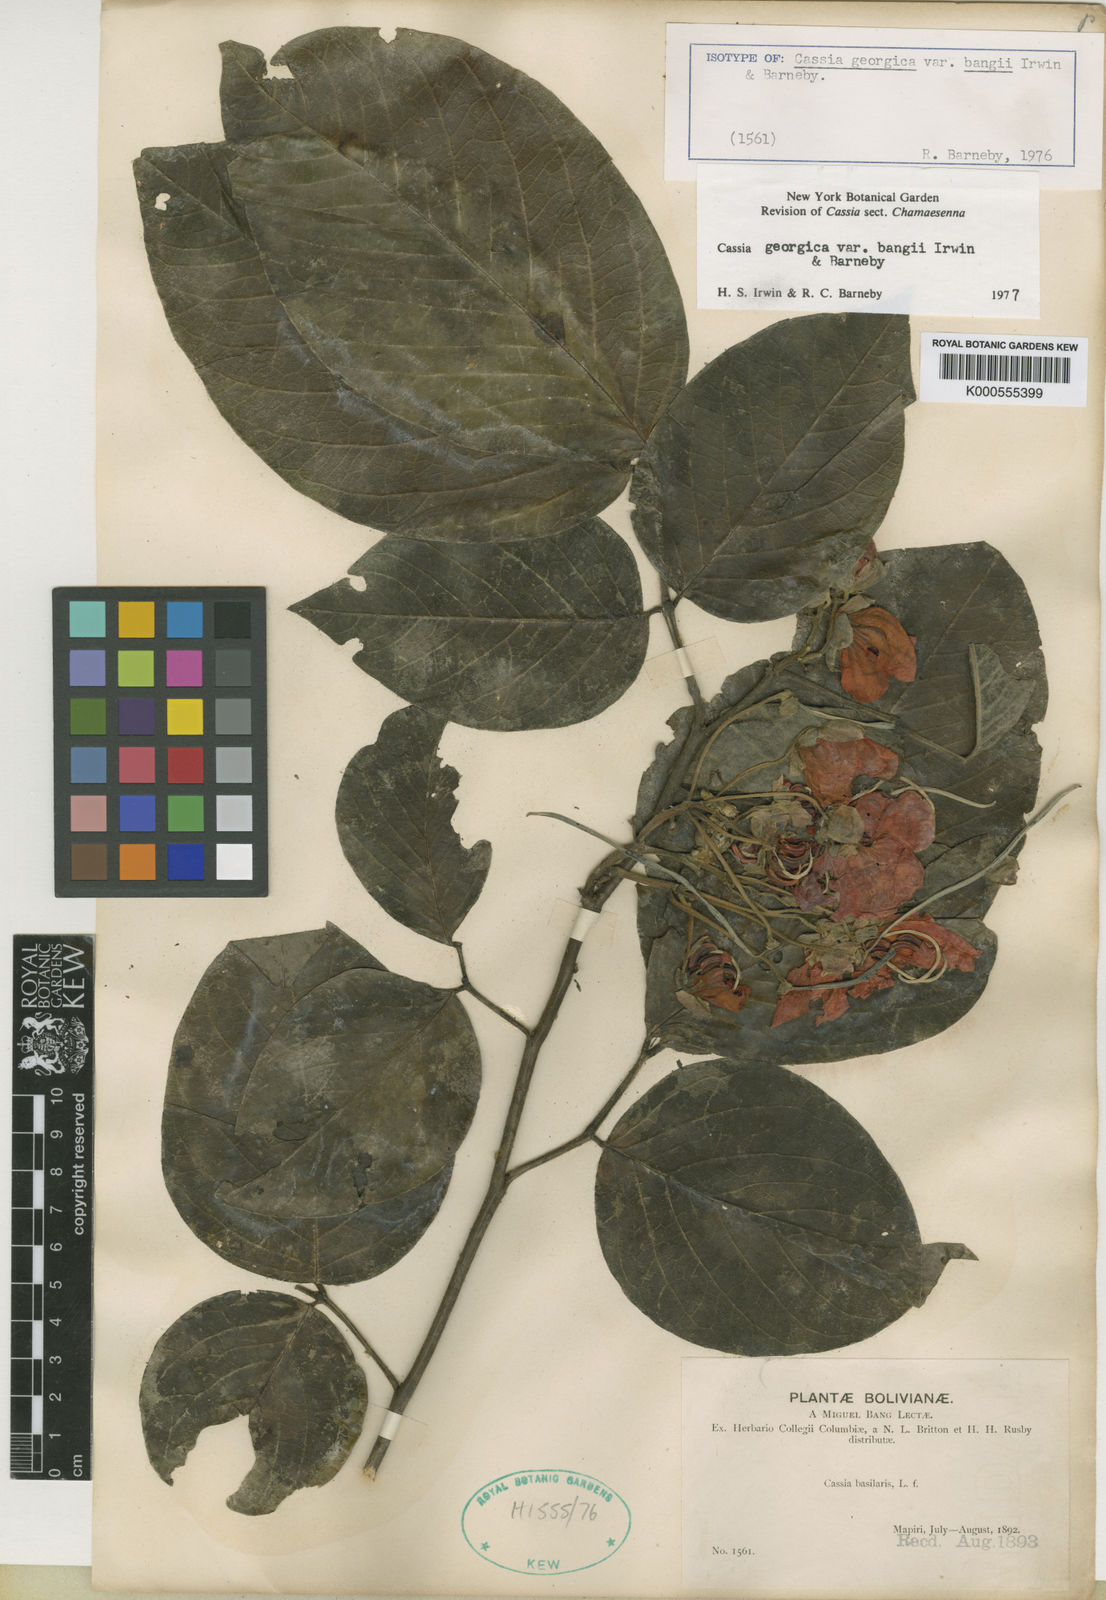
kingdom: Plantae
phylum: Tracheophyta
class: Magnoliopsida
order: Fabales
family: Fabaceae
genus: Senna
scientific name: Senna georgica
